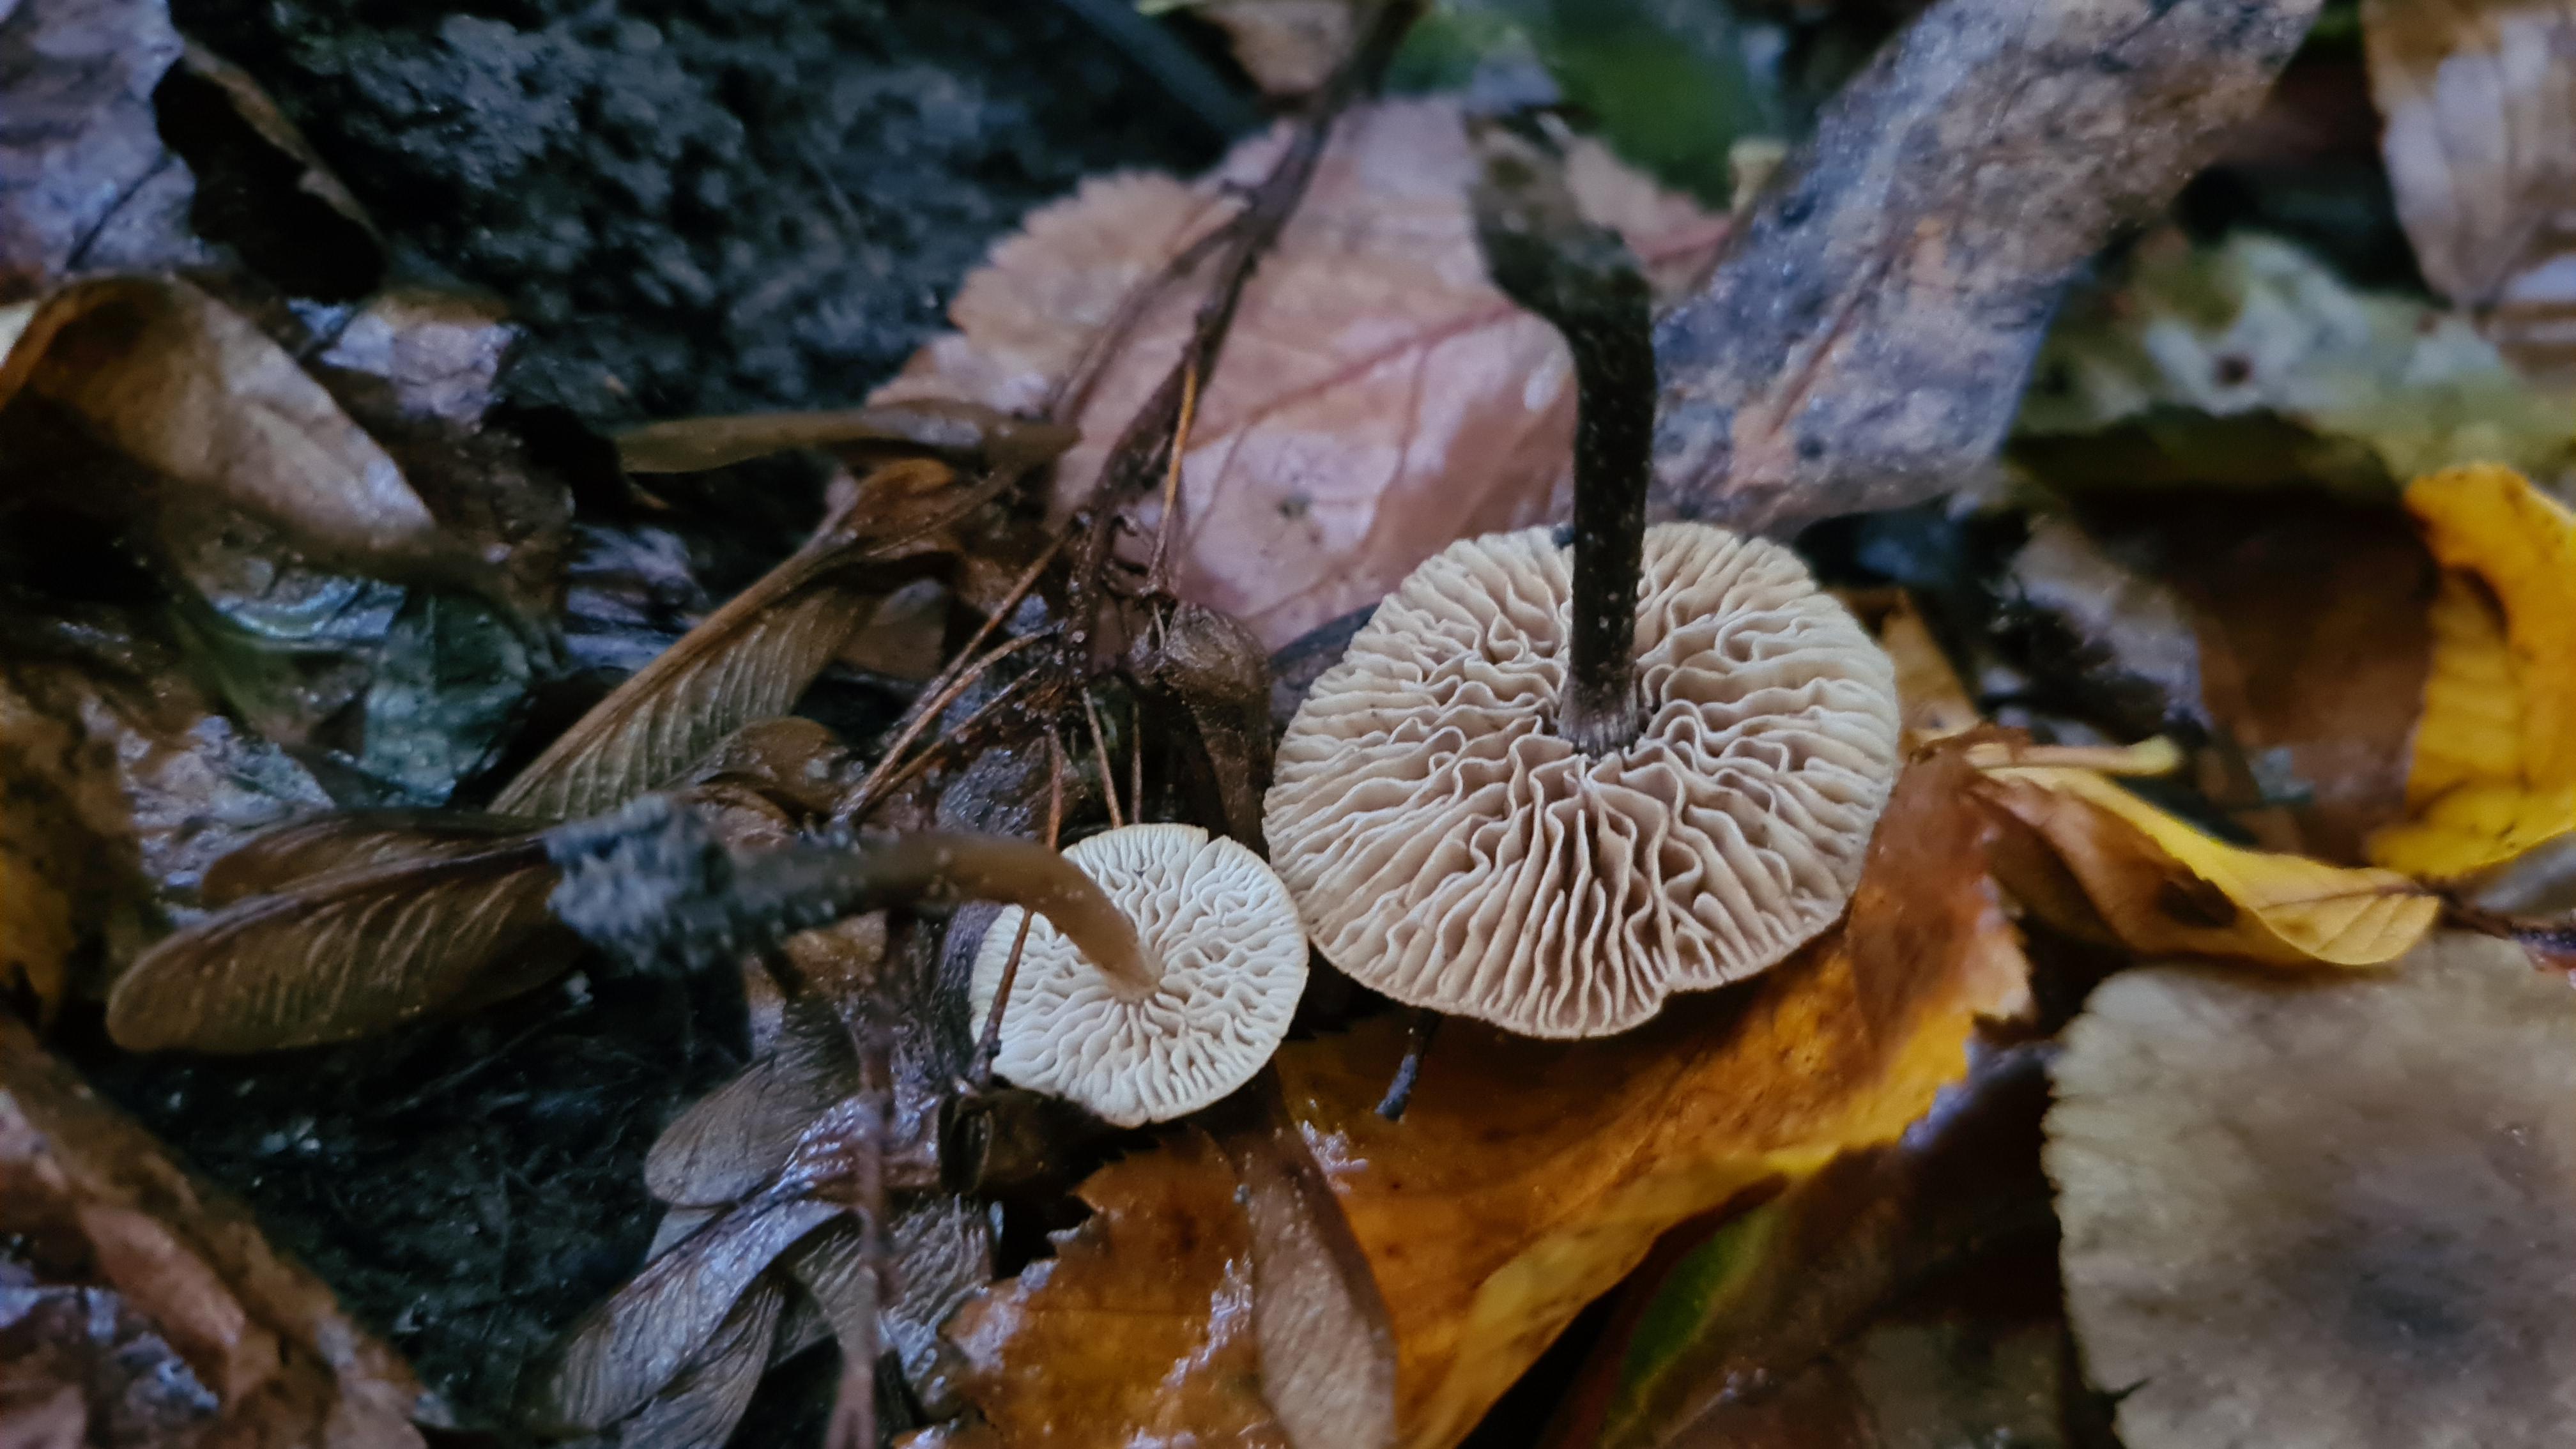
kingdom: Fungi
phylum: Basidiomycota
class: Agaricomycetes
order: Agaricales
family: Hymenogastraceae
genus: Naucoria
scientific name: Naucoria
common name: knaphat
